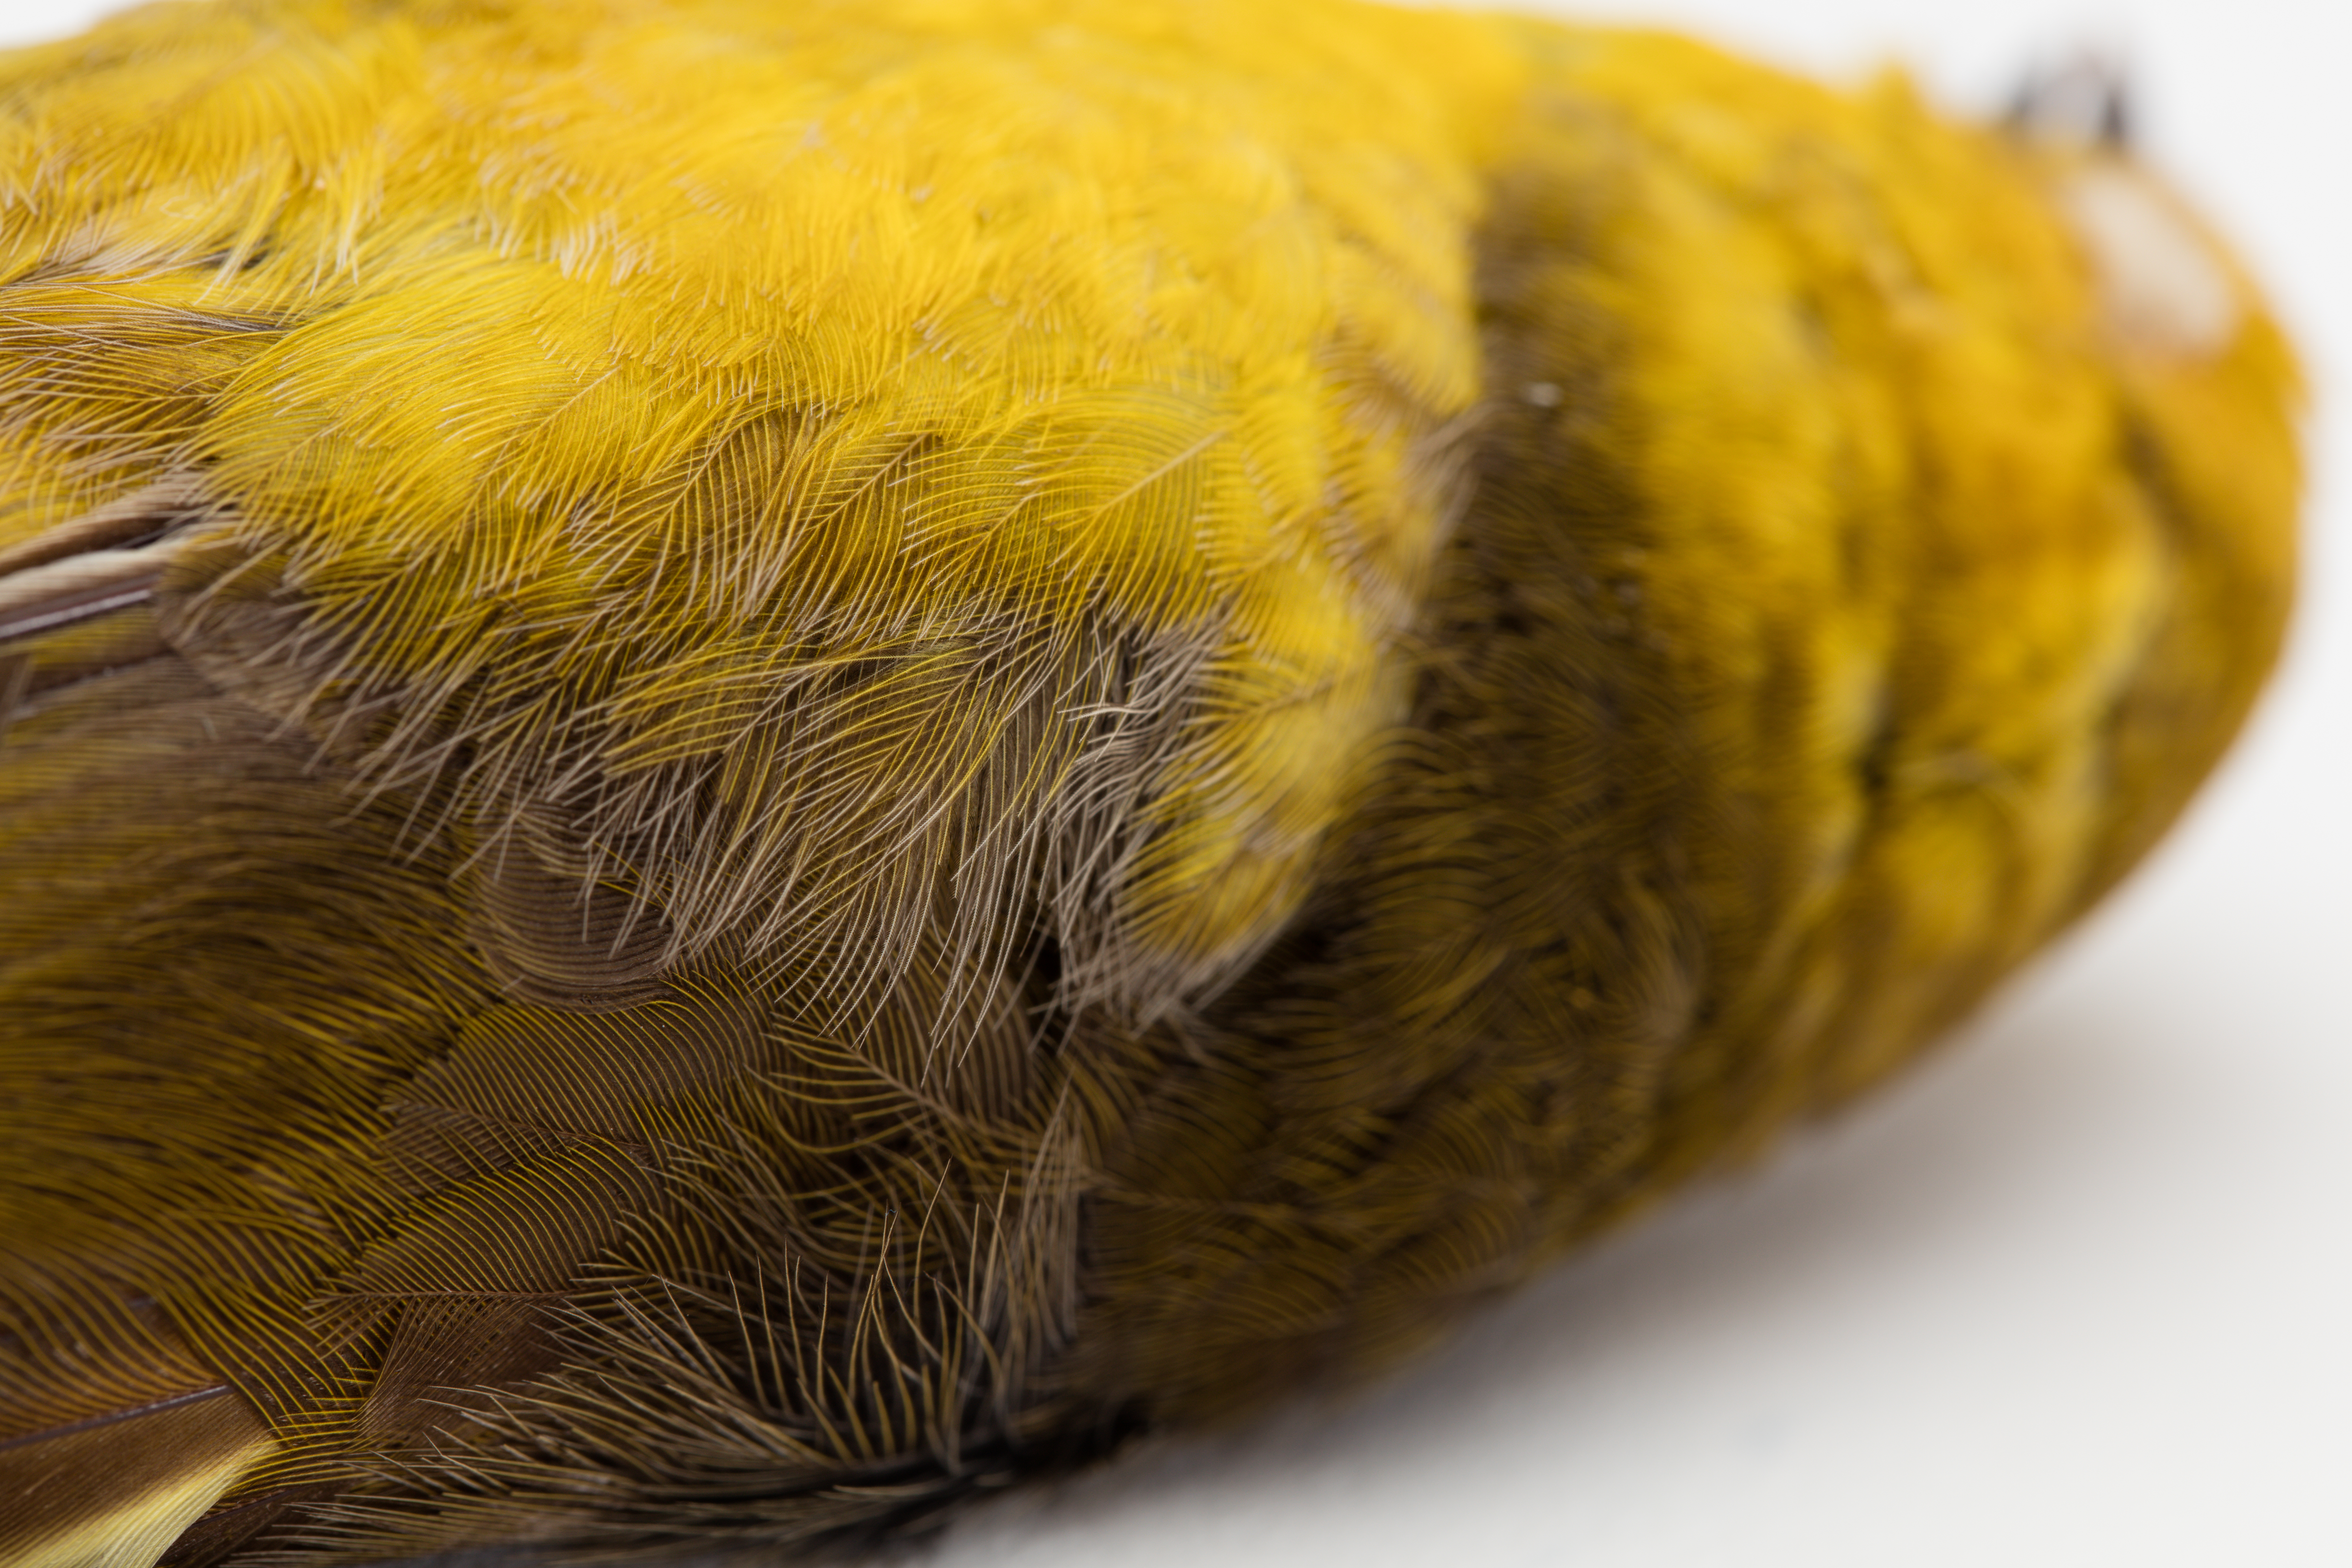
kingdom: Animalia
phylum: Chordata
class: Aves
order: Passeriformes
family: Acanthizidae
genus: Mohoua
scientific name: Mohoua ochrocephala
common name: Yellowhead
